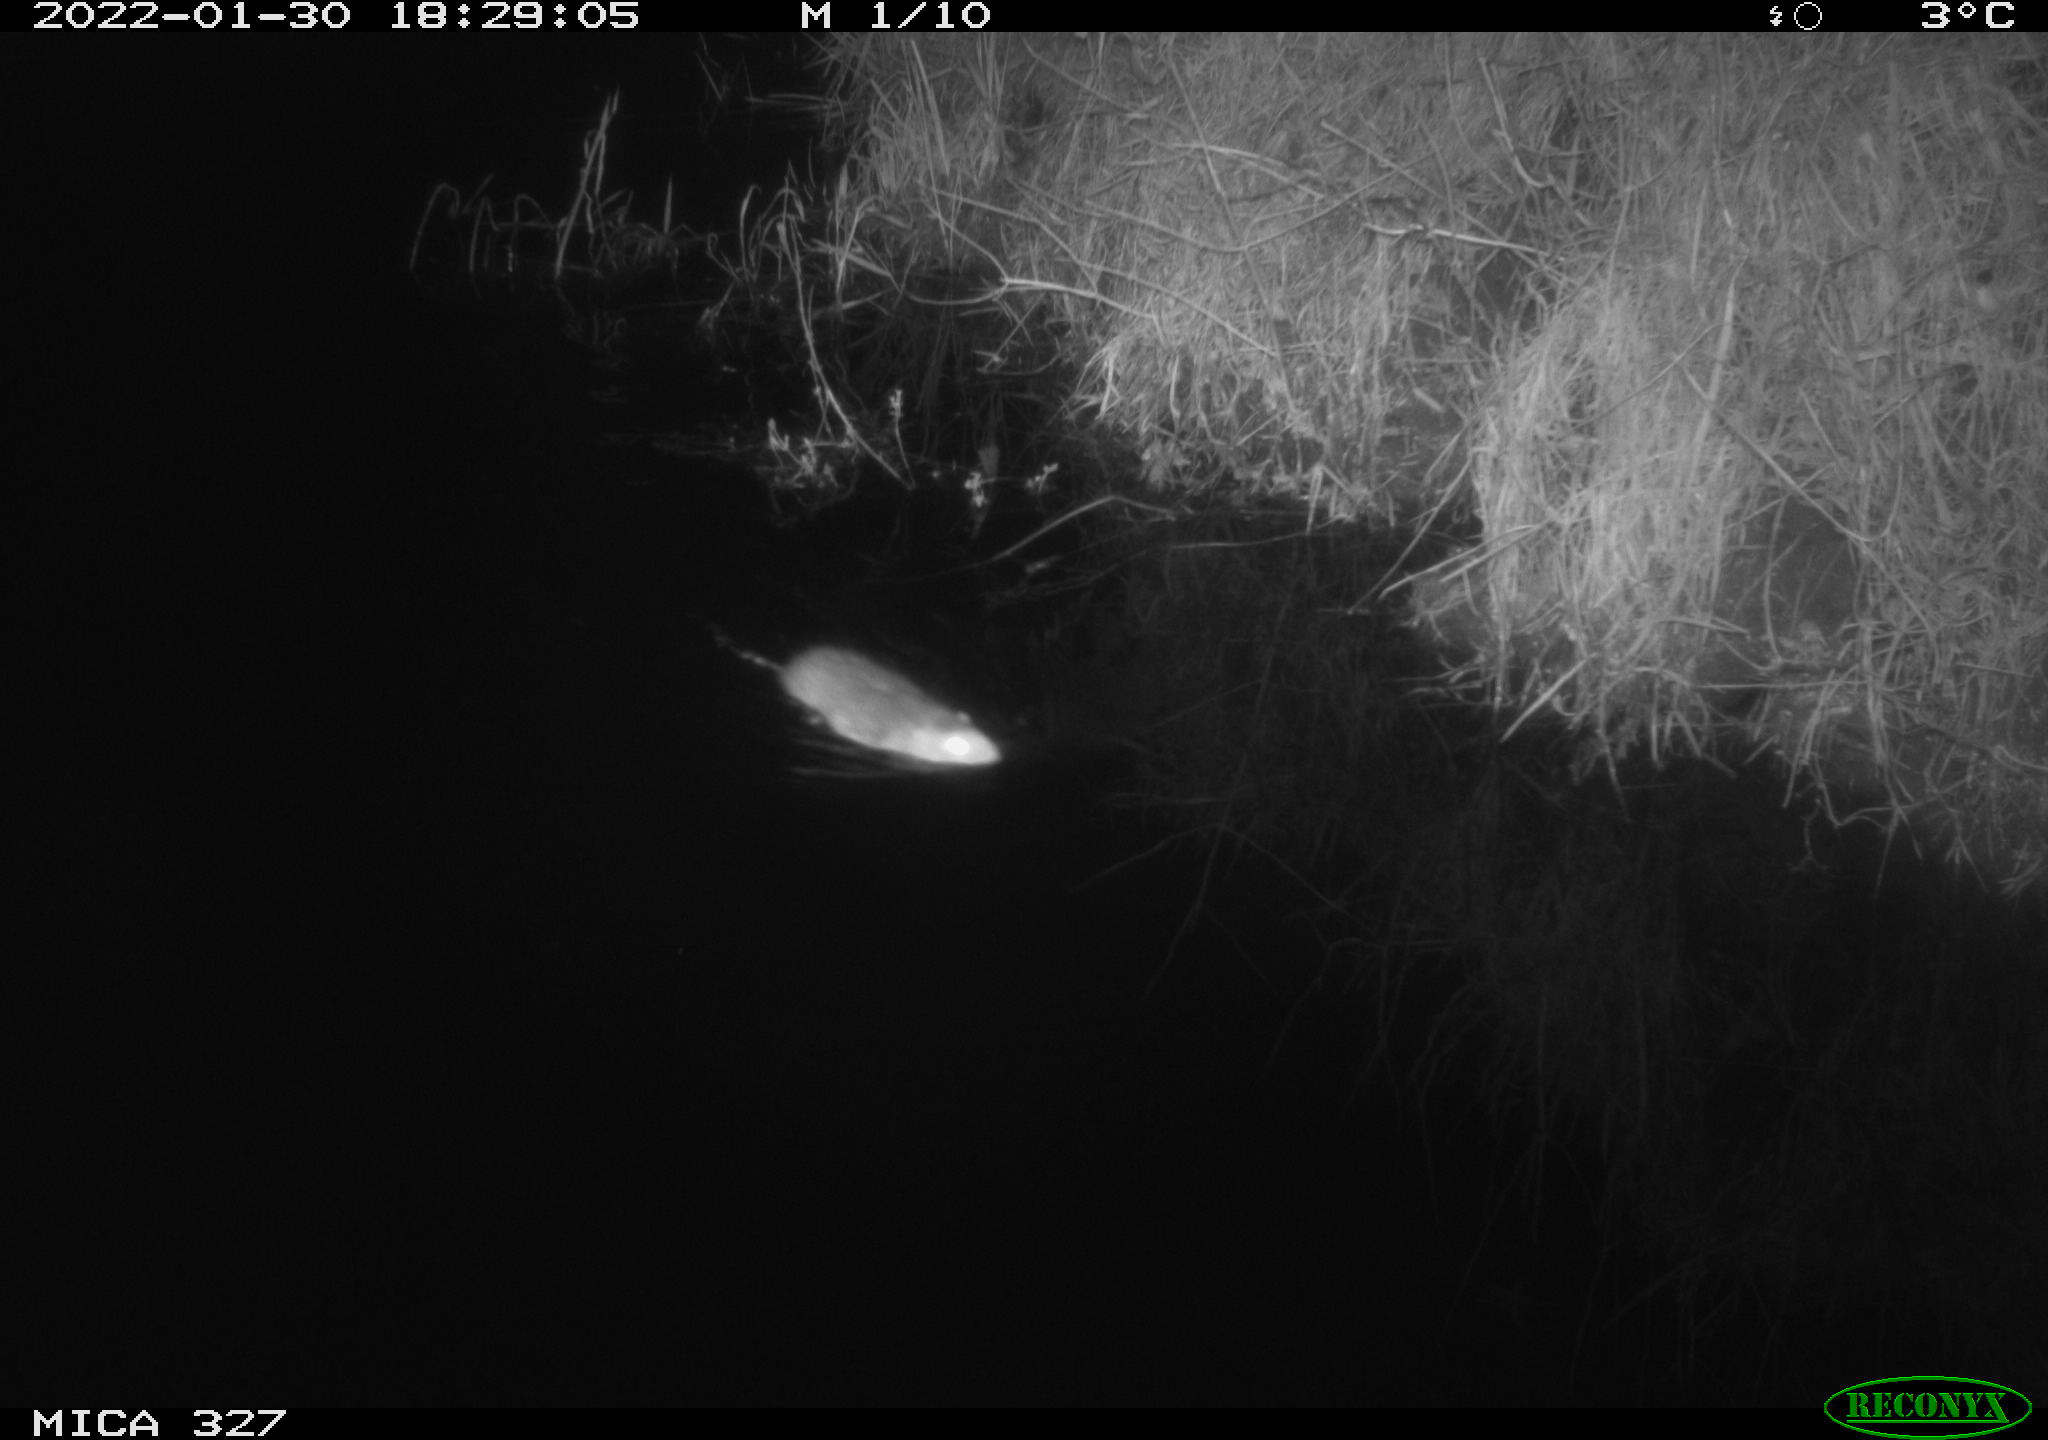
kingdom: Animalia
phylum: Chordata
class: Mammalia
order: Rodentia
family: Muridae
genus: Rattus
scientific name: Rattus norvegicus
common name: Brown rat
